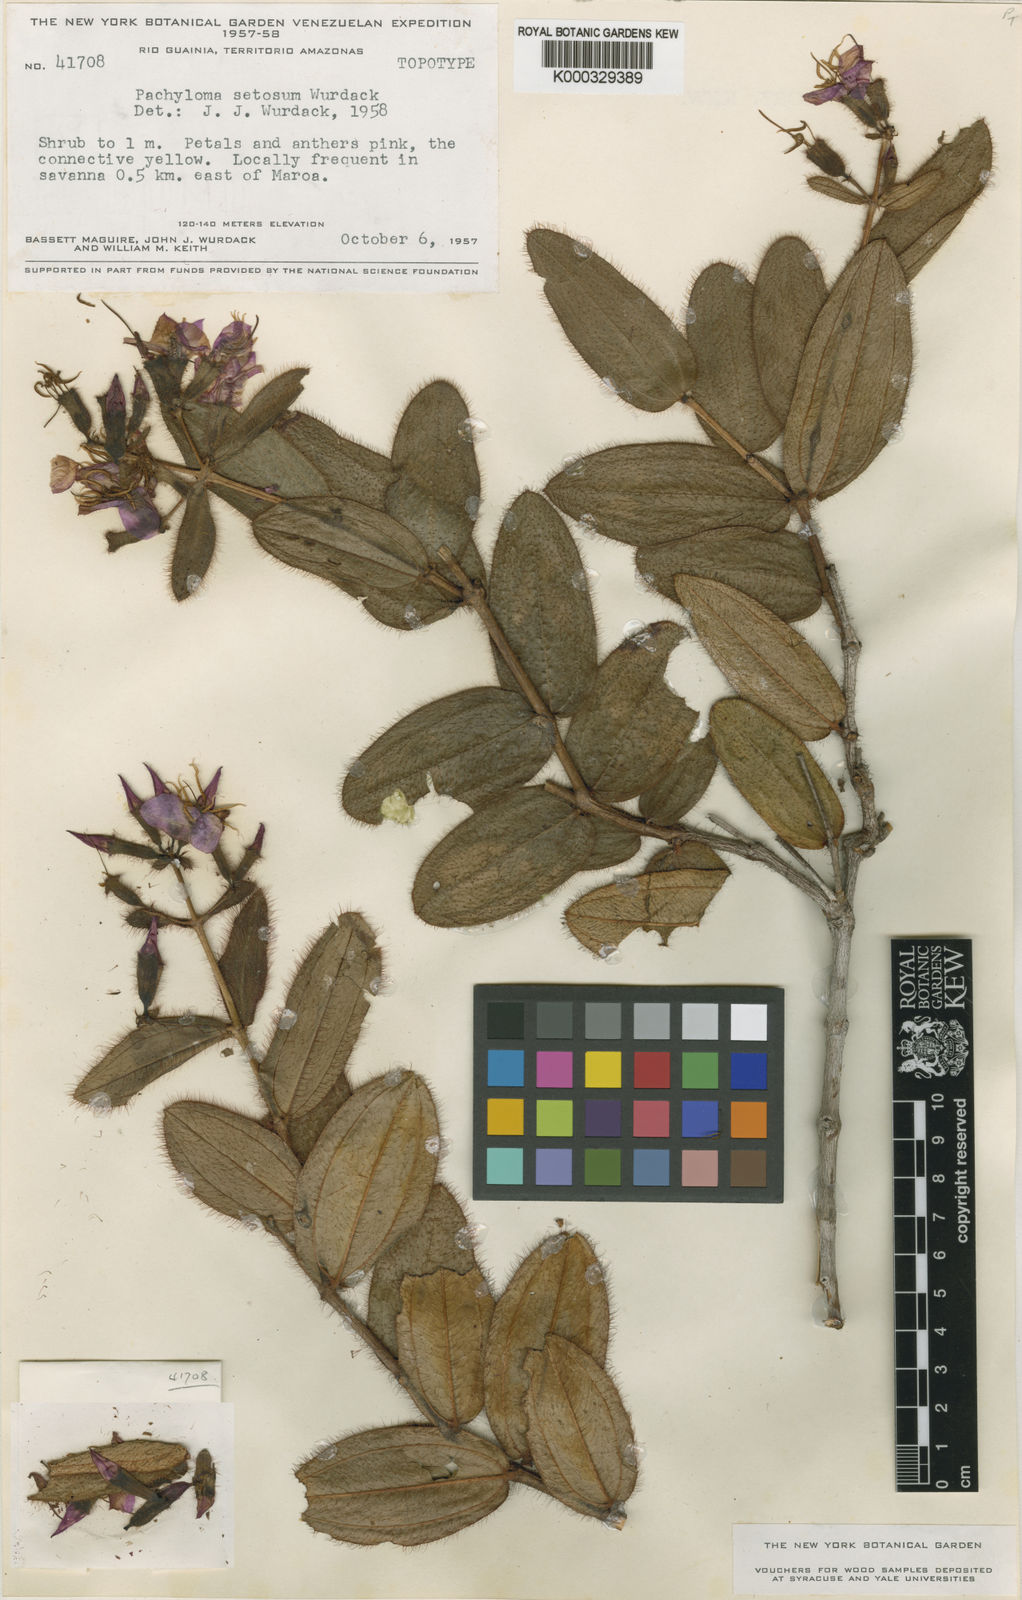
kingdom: Plantae
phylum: Tracheophyta
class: Magnoliopsida
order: Myrtales
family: Melastomataceae
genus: Pachyloma
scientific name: Pachyloma setosum
